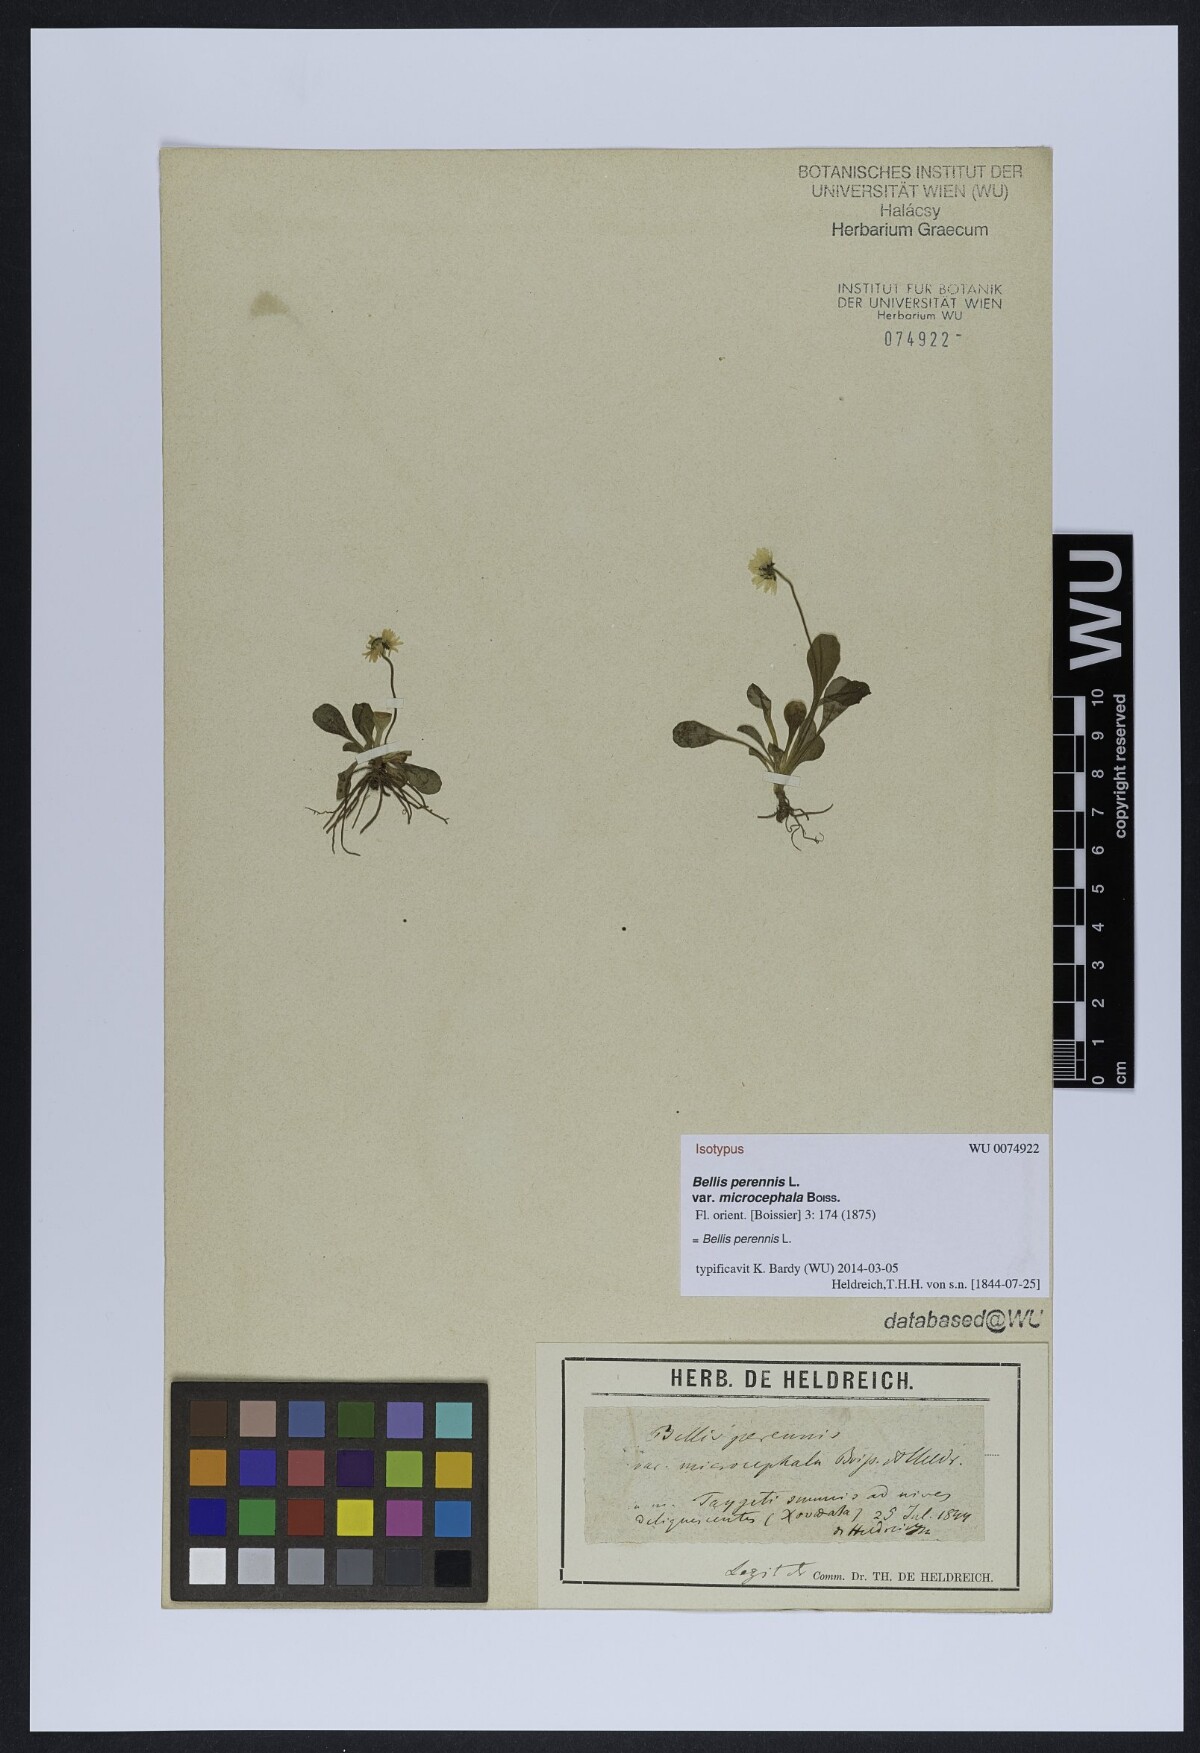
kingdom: Plantae
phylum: Tracheophyta
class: Magnoliopsida
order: Asterales
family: Asteraceae
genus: Bellis
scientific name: Bellis perennis
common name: Lawndaisy
